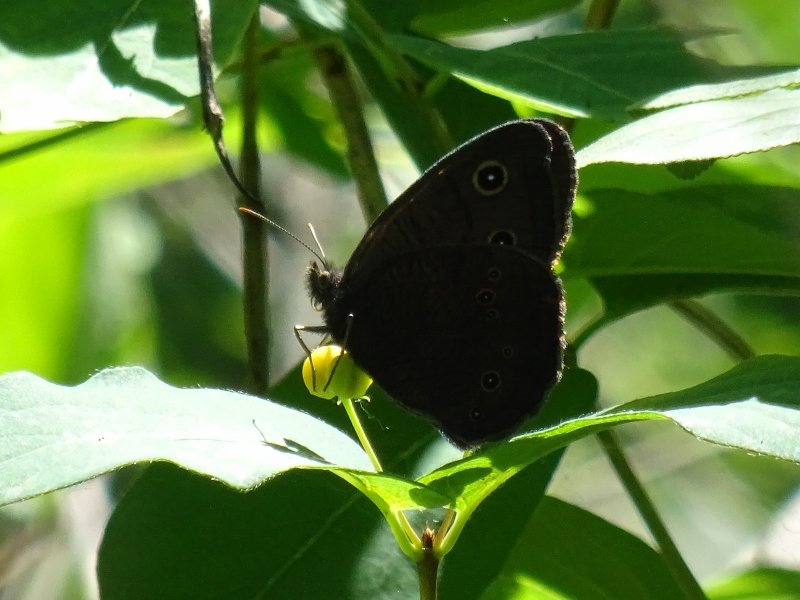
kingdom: Animalia
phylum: Arthropoda
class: Insecta
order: Lepidoptera
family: Nymphalidae
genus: Cercyonis
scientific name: Cercyonis pegala
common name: Common Wood-Nymph
